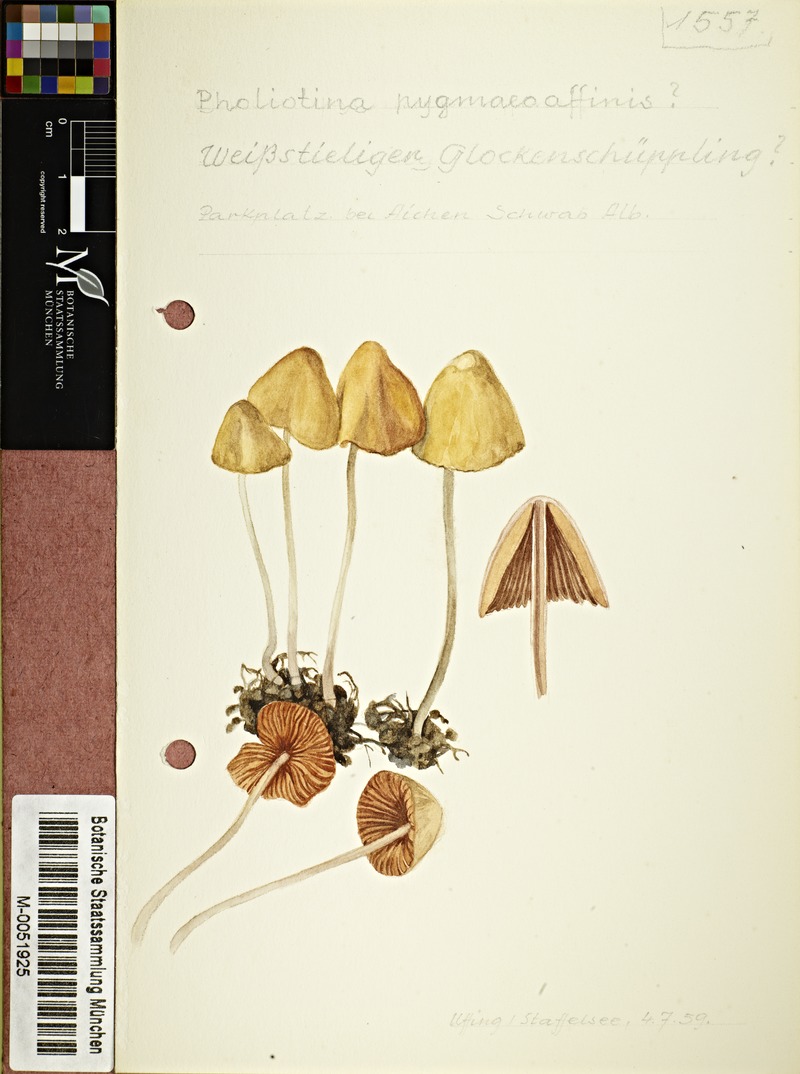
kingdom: Fungi
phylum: Basidiomycota
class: Agaricomycetes
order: Agaricales
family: Bolbitiaceae
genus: Conocybe
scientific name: Conocybe pygmaeoaffinis
